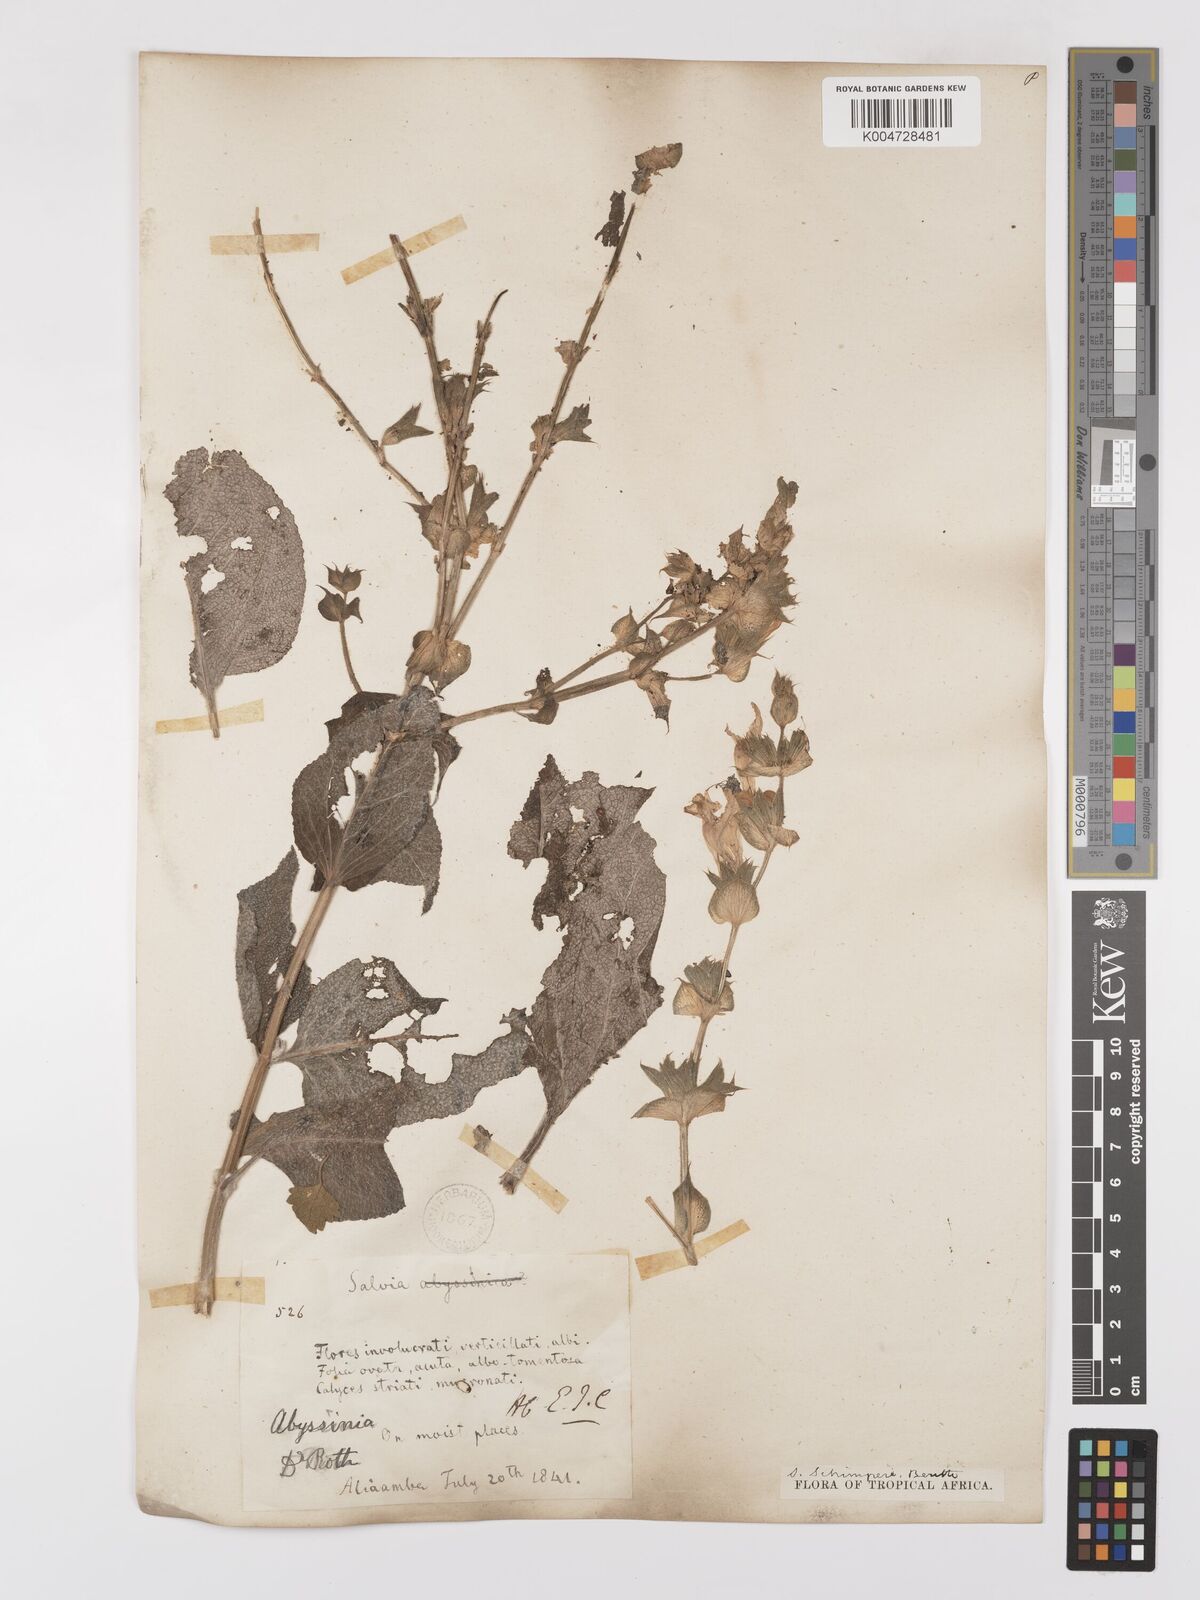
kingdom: Plantae
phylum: Tracheophyta
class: Magnoliopsida
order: Lamiales
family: Lamiaceae
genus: Salvia
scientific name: Salvia schimperi
